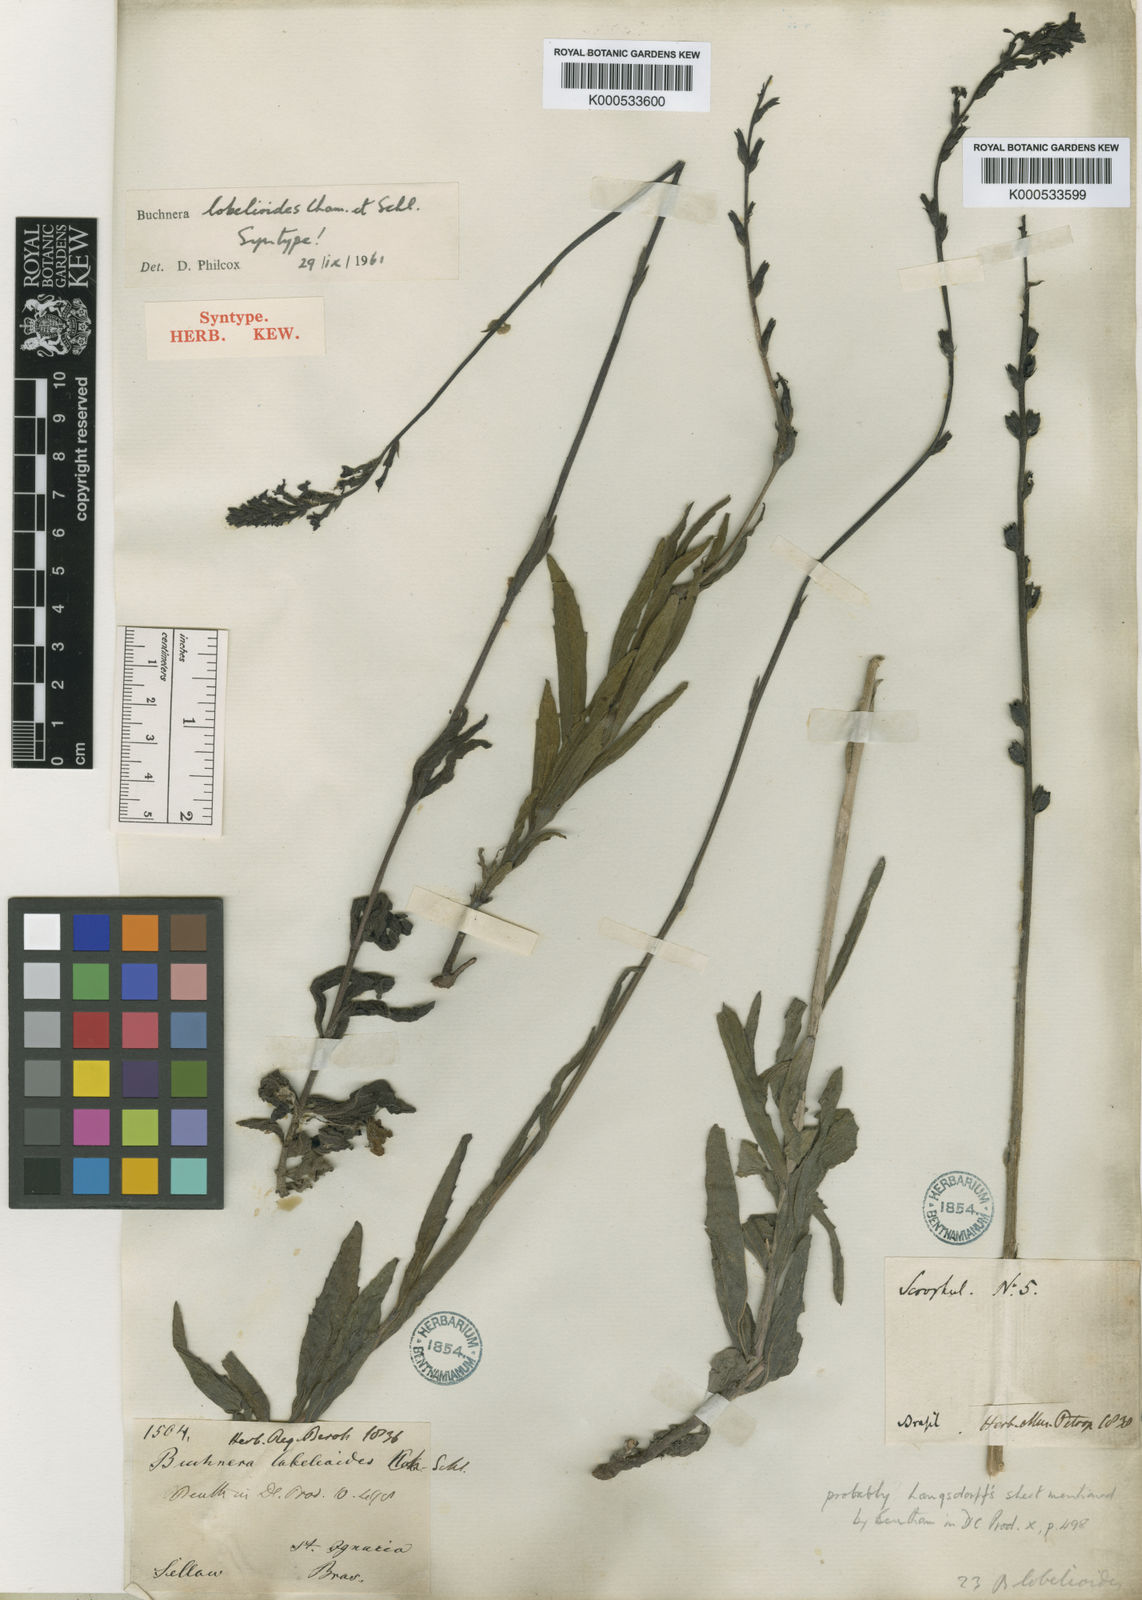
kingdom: Plantae
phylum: Tracheophyta
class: Magnoliopsida
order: Lamiales
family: Orobanchaceae
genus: Buchnera
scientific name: Buchnera ternifolia
